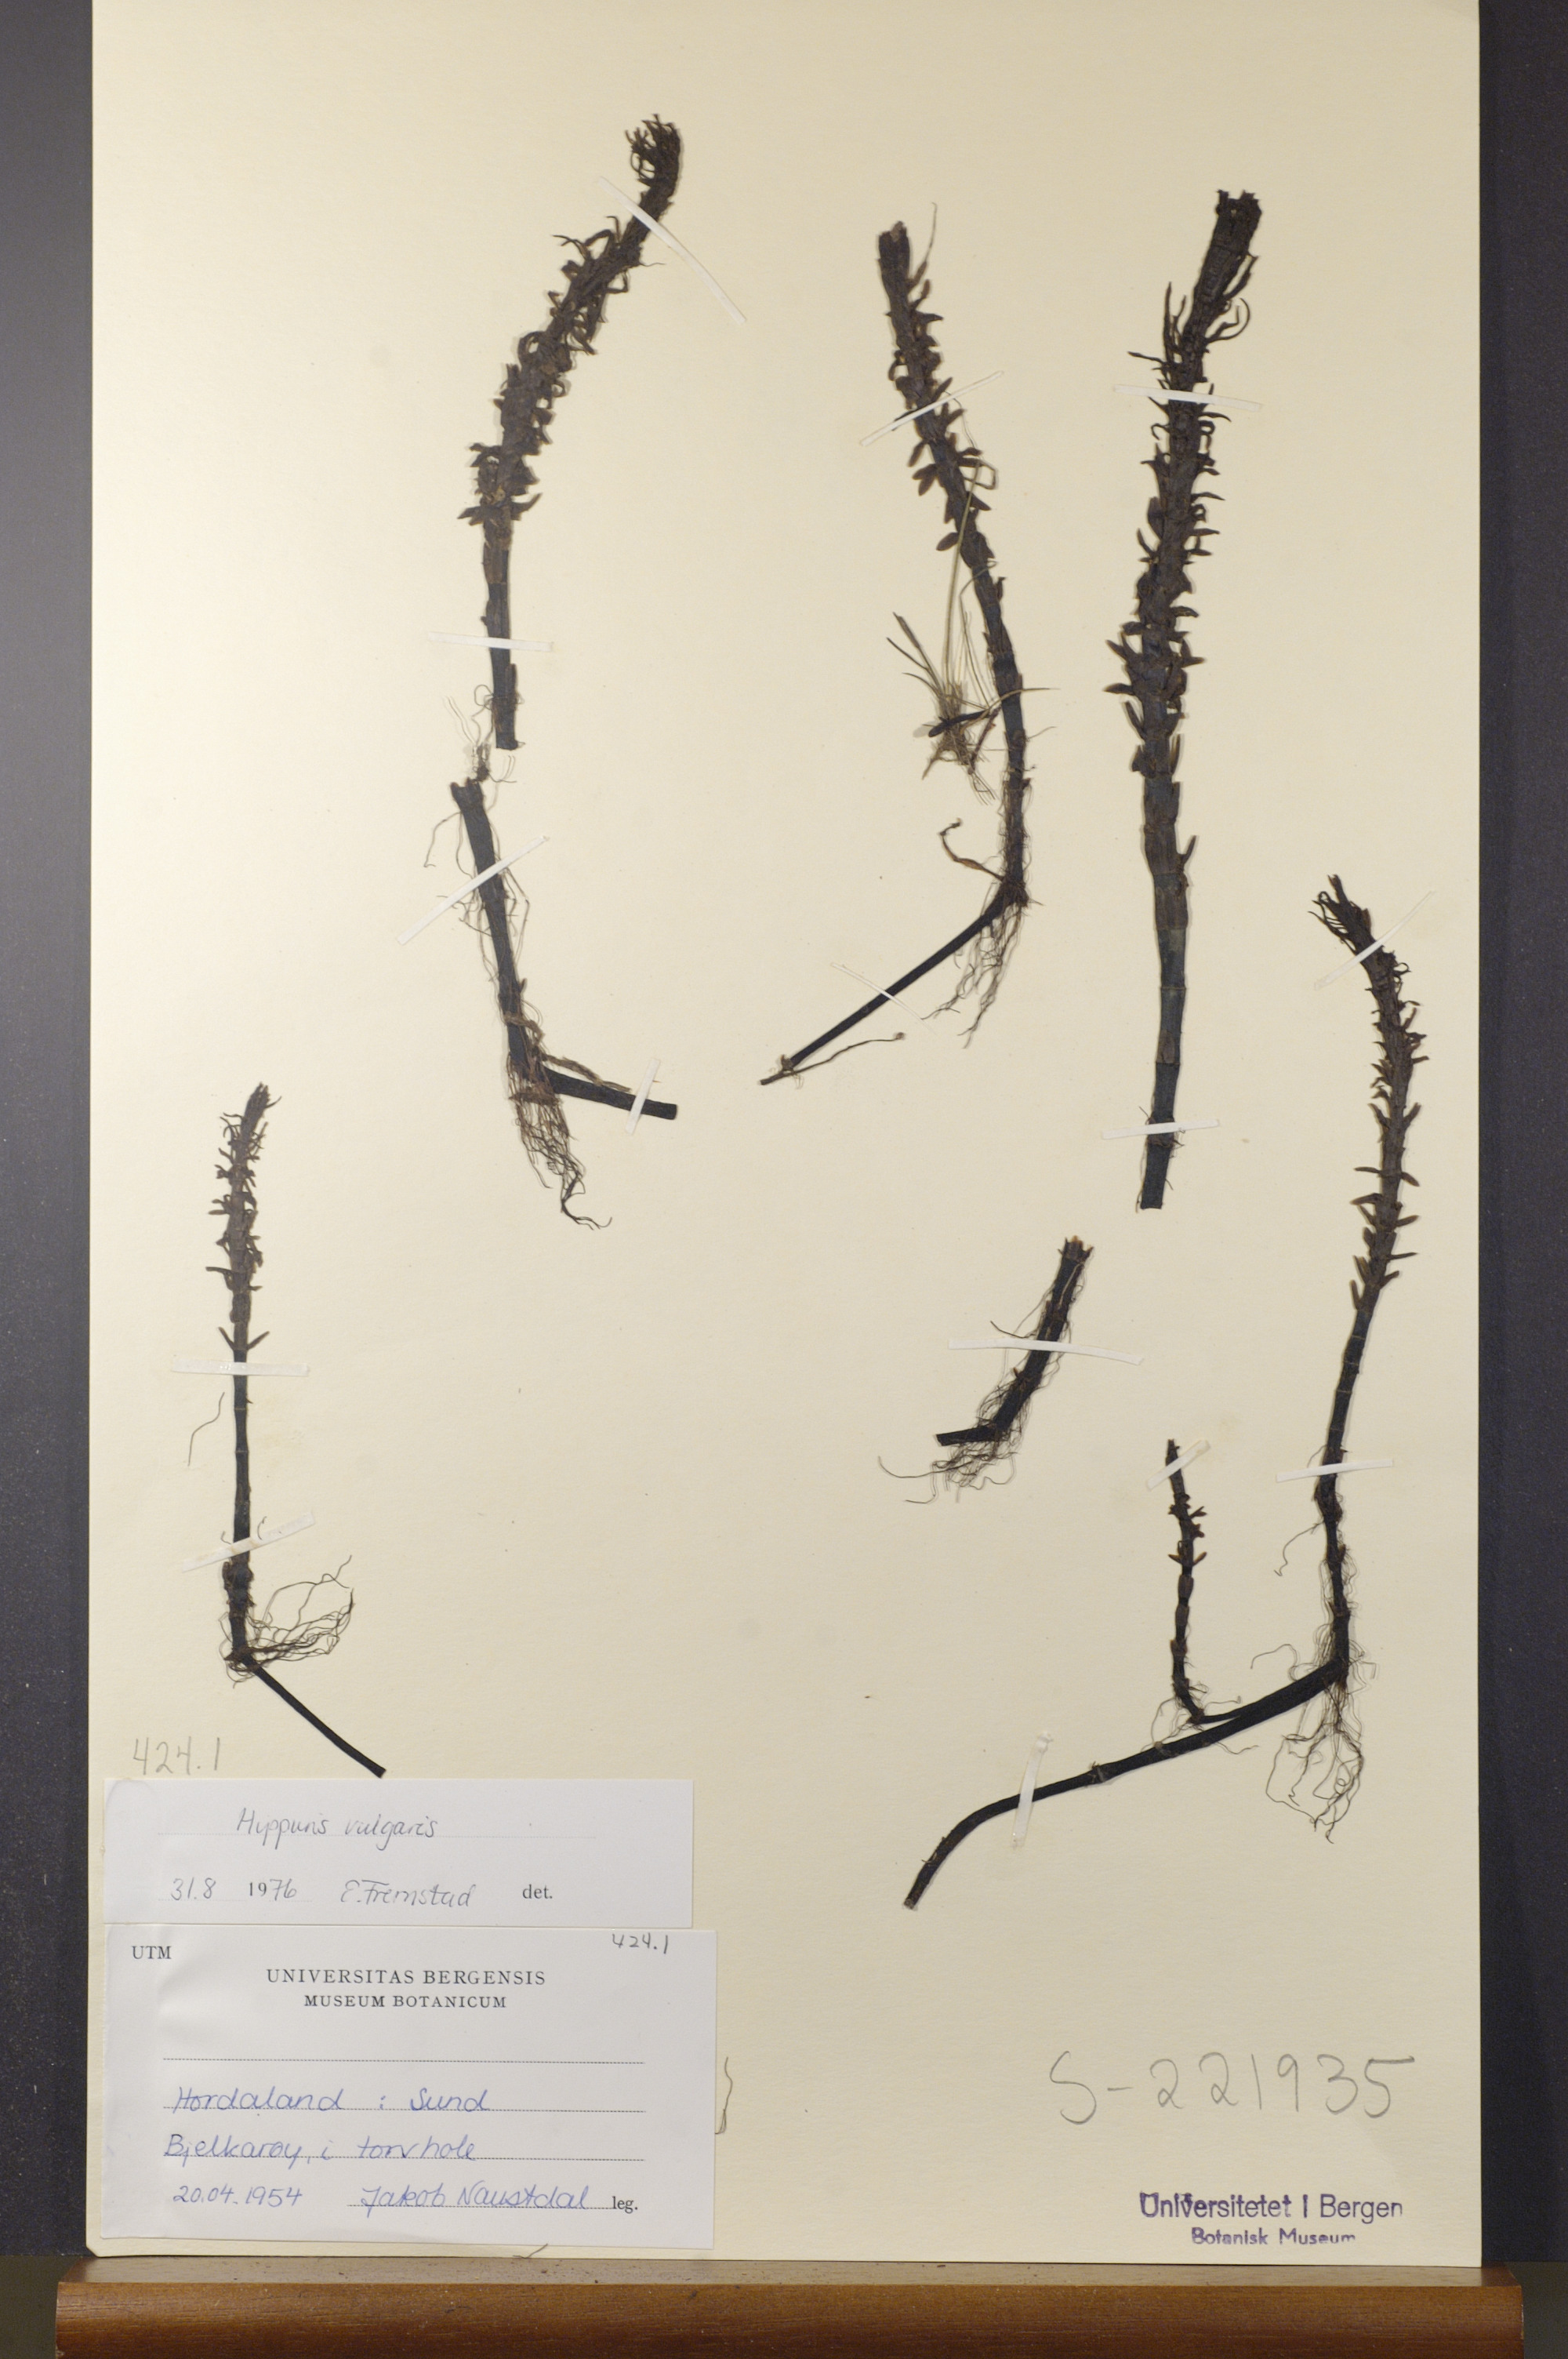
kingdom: Plantae
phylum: Tracheophyta
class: Magnoliopsida
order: Lamiales
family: Plantaginaceae
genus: Hippuris
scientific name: Hippuris vulgaris
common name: Mare's-tail
